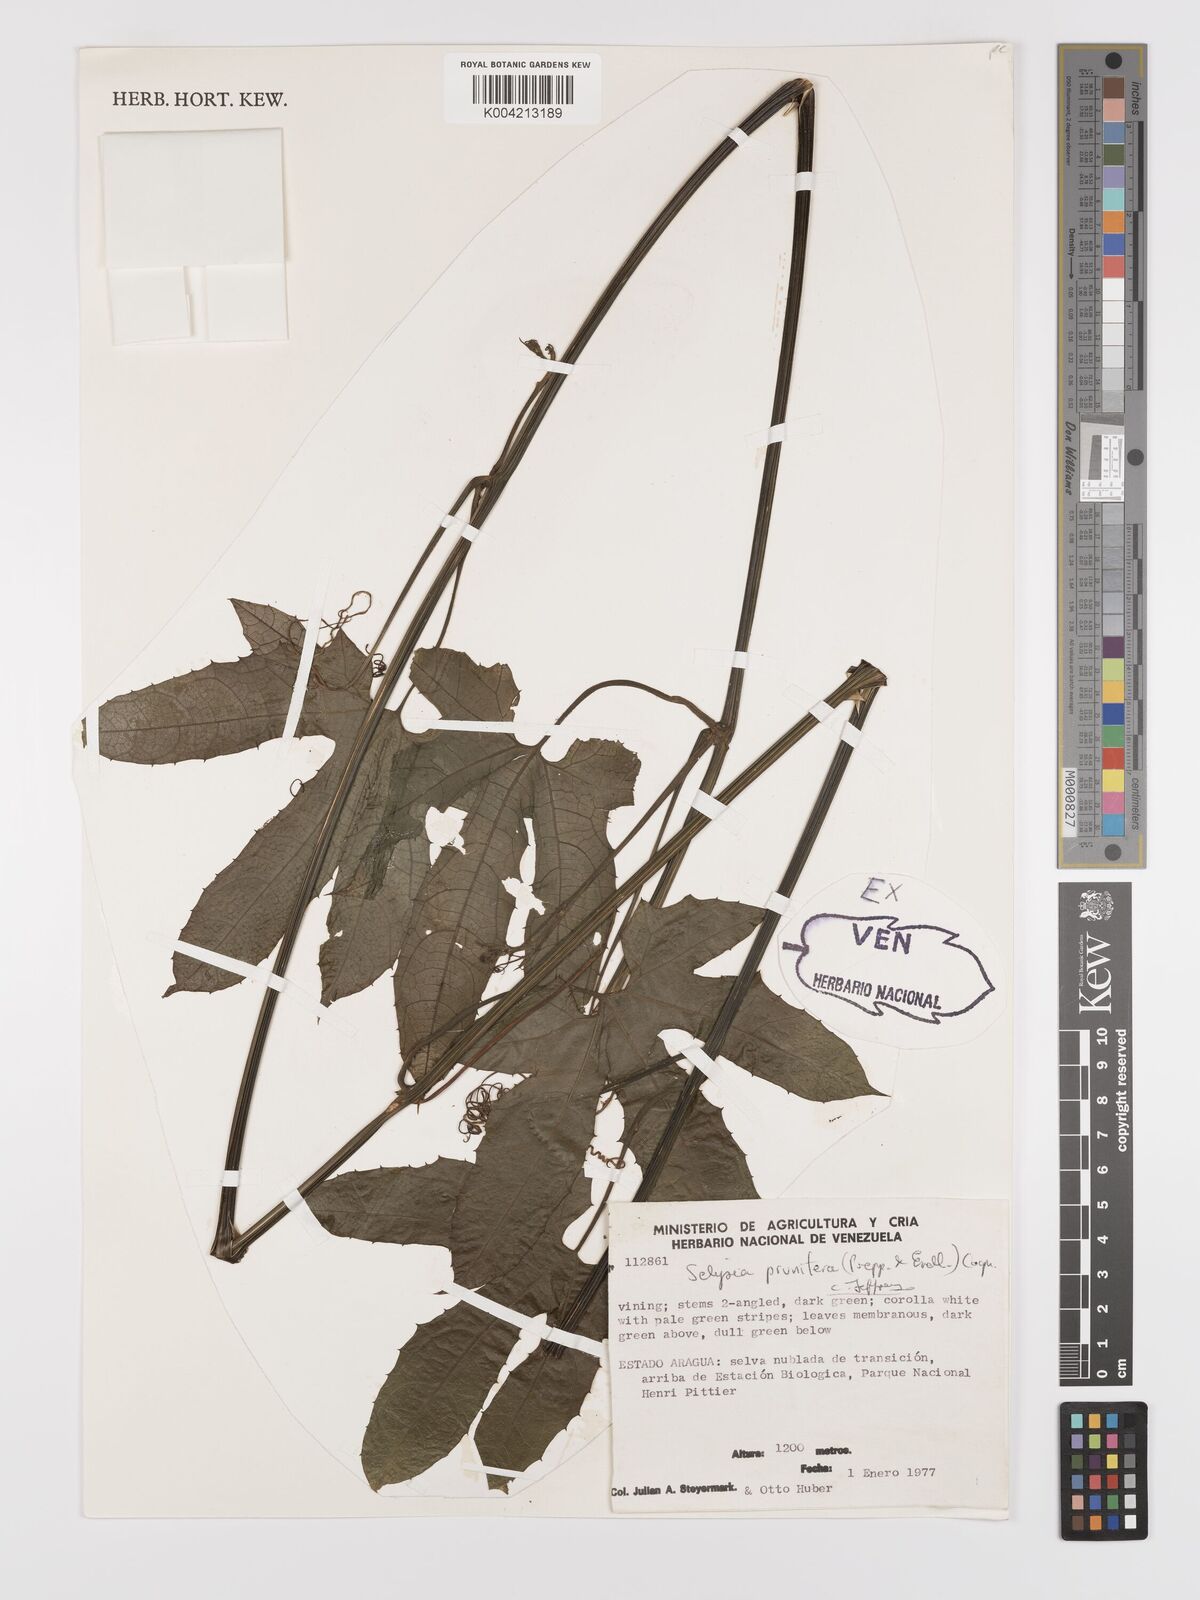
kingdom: Plantae
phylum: Tracheophyta
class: Magnoliopsida
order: Cucurbitales
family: Cucurbitaceae
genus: Cayaponia
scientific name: Cayaponia prunifera
